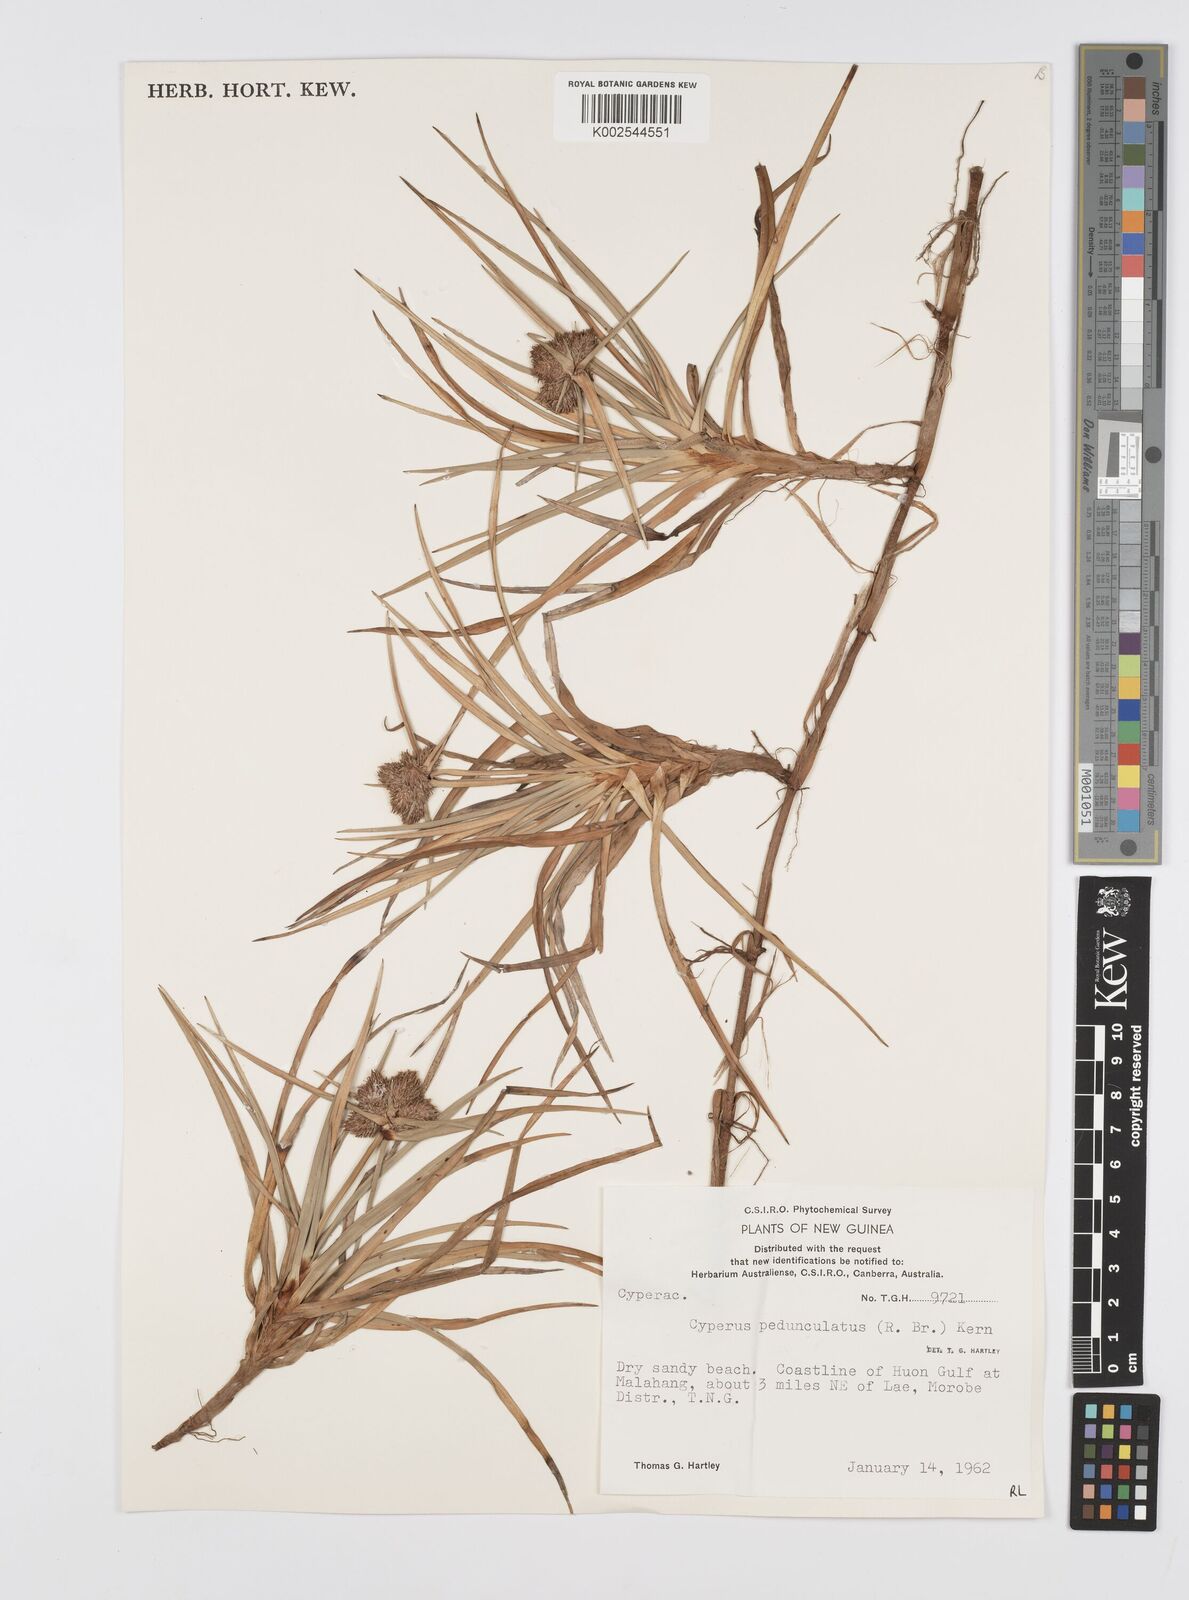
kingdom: Plantae
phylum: Tracheophyta
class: Liliopsida
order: Poales
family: Cyperaceae
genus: Cyperus
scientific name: Cyperus
